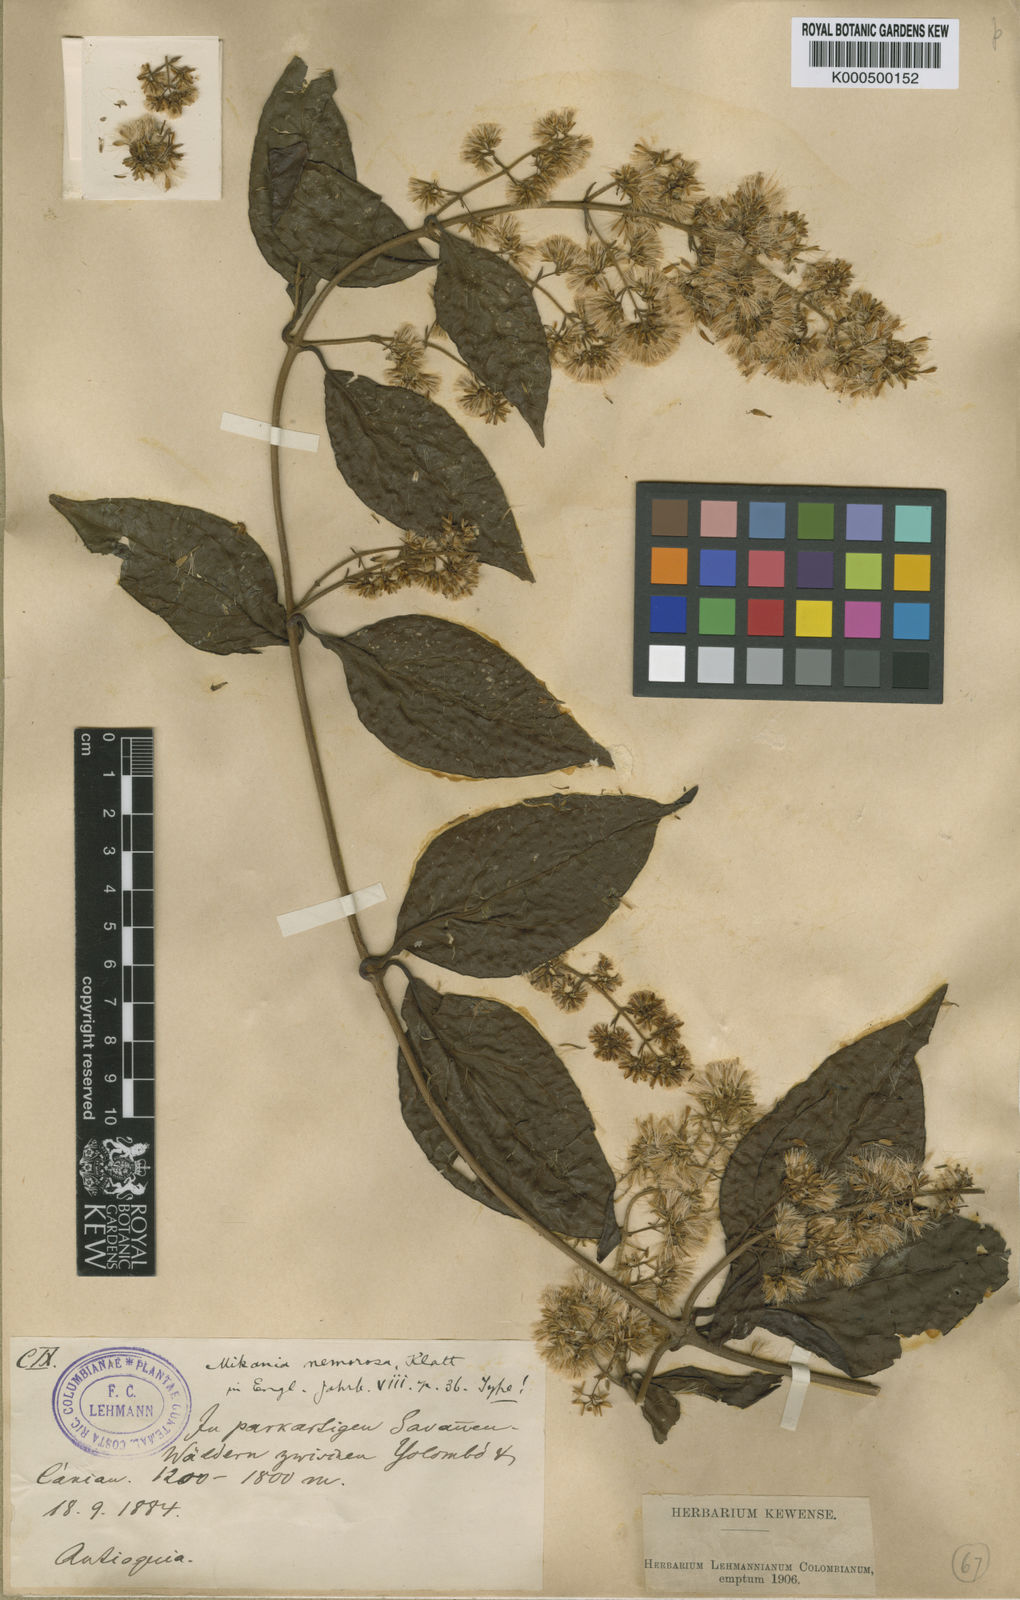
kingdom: Plantae
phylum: Tracheophyta
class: Magnoliopsida
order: Asterales
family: Asteraceae
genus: Mikania
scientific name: Mikania nemorosa
